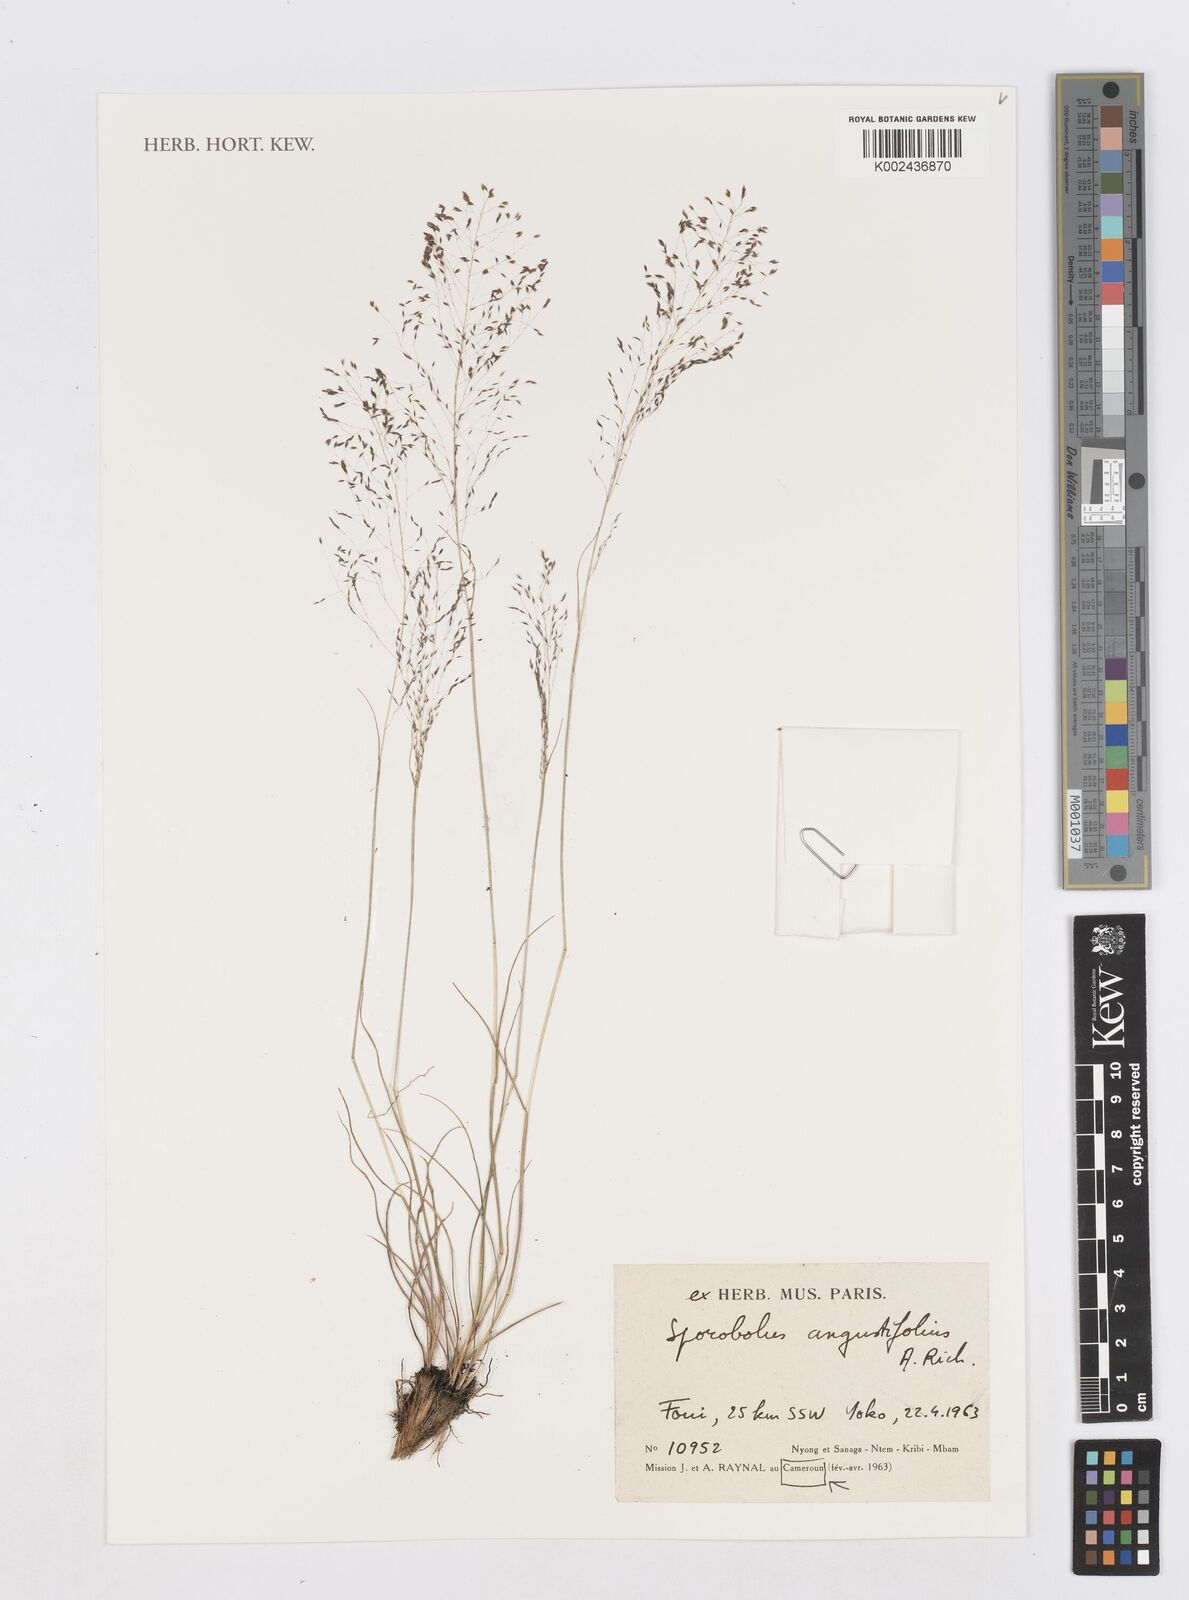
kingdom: Plantae
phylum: Tracheophyta
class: Liliopsida
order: Poales
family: Poaceae
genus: Sporobolus
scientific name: Sporobolus angustifolius
